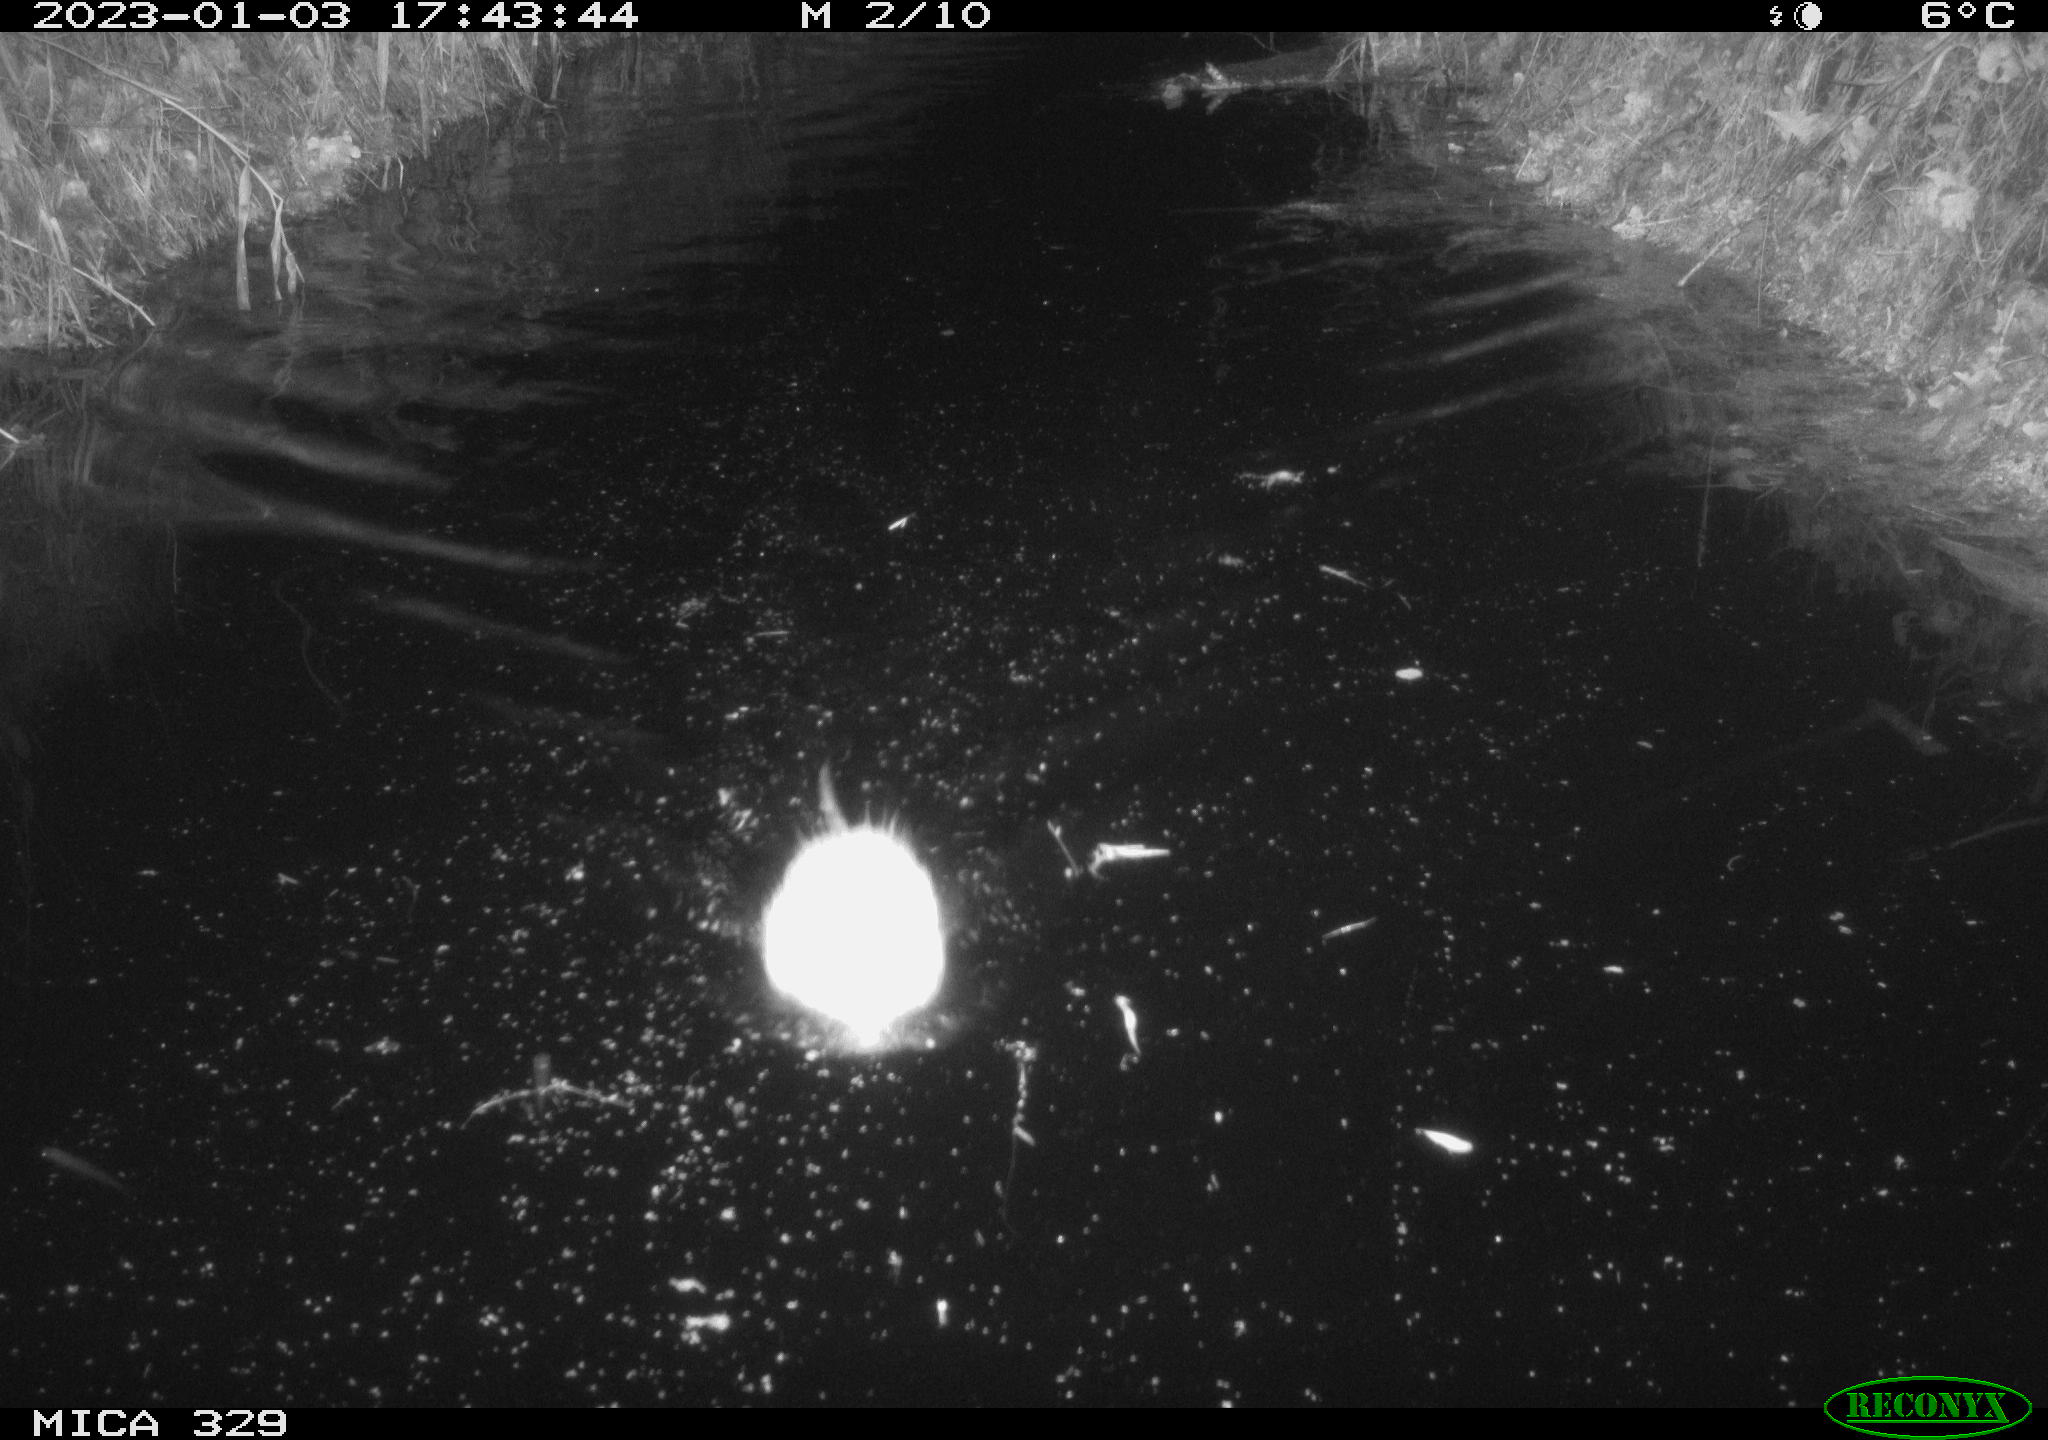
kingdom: Animalia
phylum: Chordata
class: Mammalia
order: Rodentia
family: Cricetidae
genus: Ondatra
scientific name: Ondatra zibethicus
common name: Muskrat
